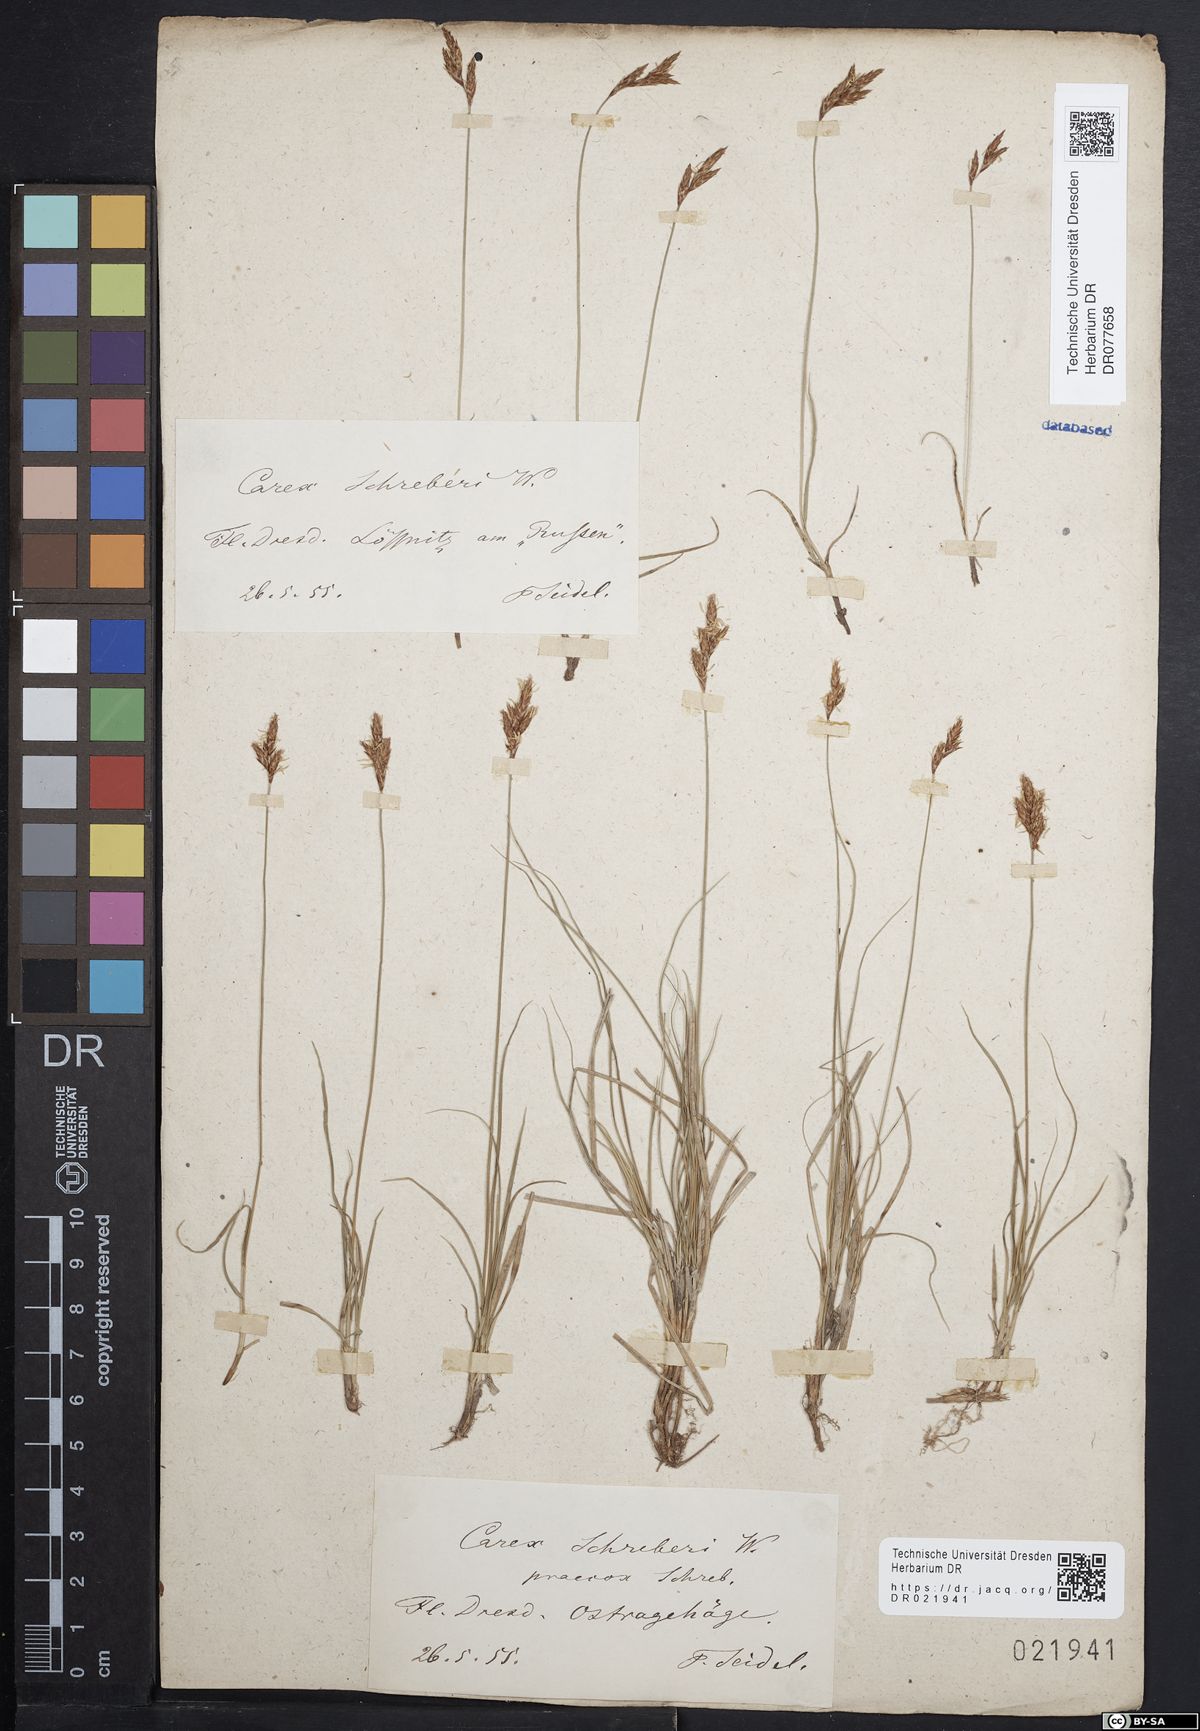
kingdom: Plantae
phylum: Tracheophyta
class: Liliopsida
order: Poales
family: Cyperaceae
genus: Carex
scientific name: Carex praecox
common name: Early sedge
